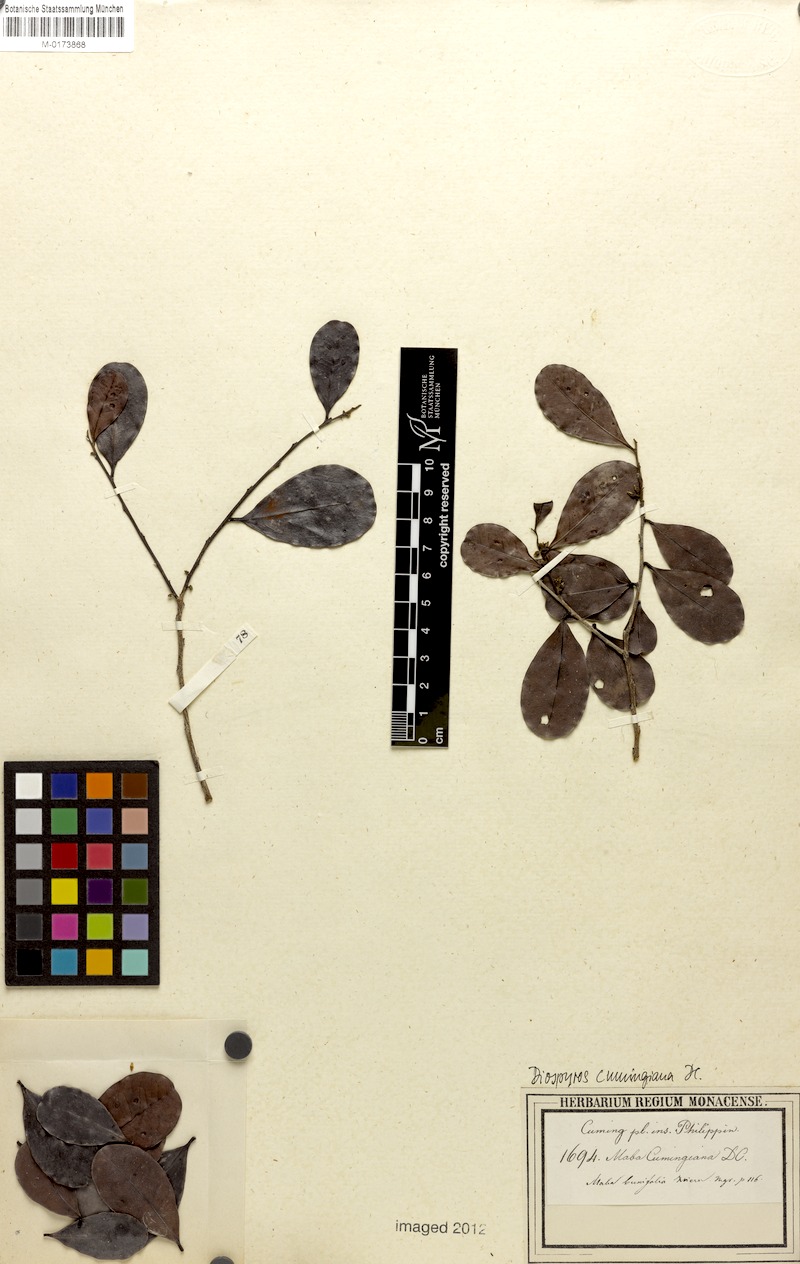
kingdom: Plantae
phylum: Tracheophyta
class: Magnoliopsida
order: Ericales
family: Ebenaceae
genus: Diospyros
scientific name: Diospyros ferrea
